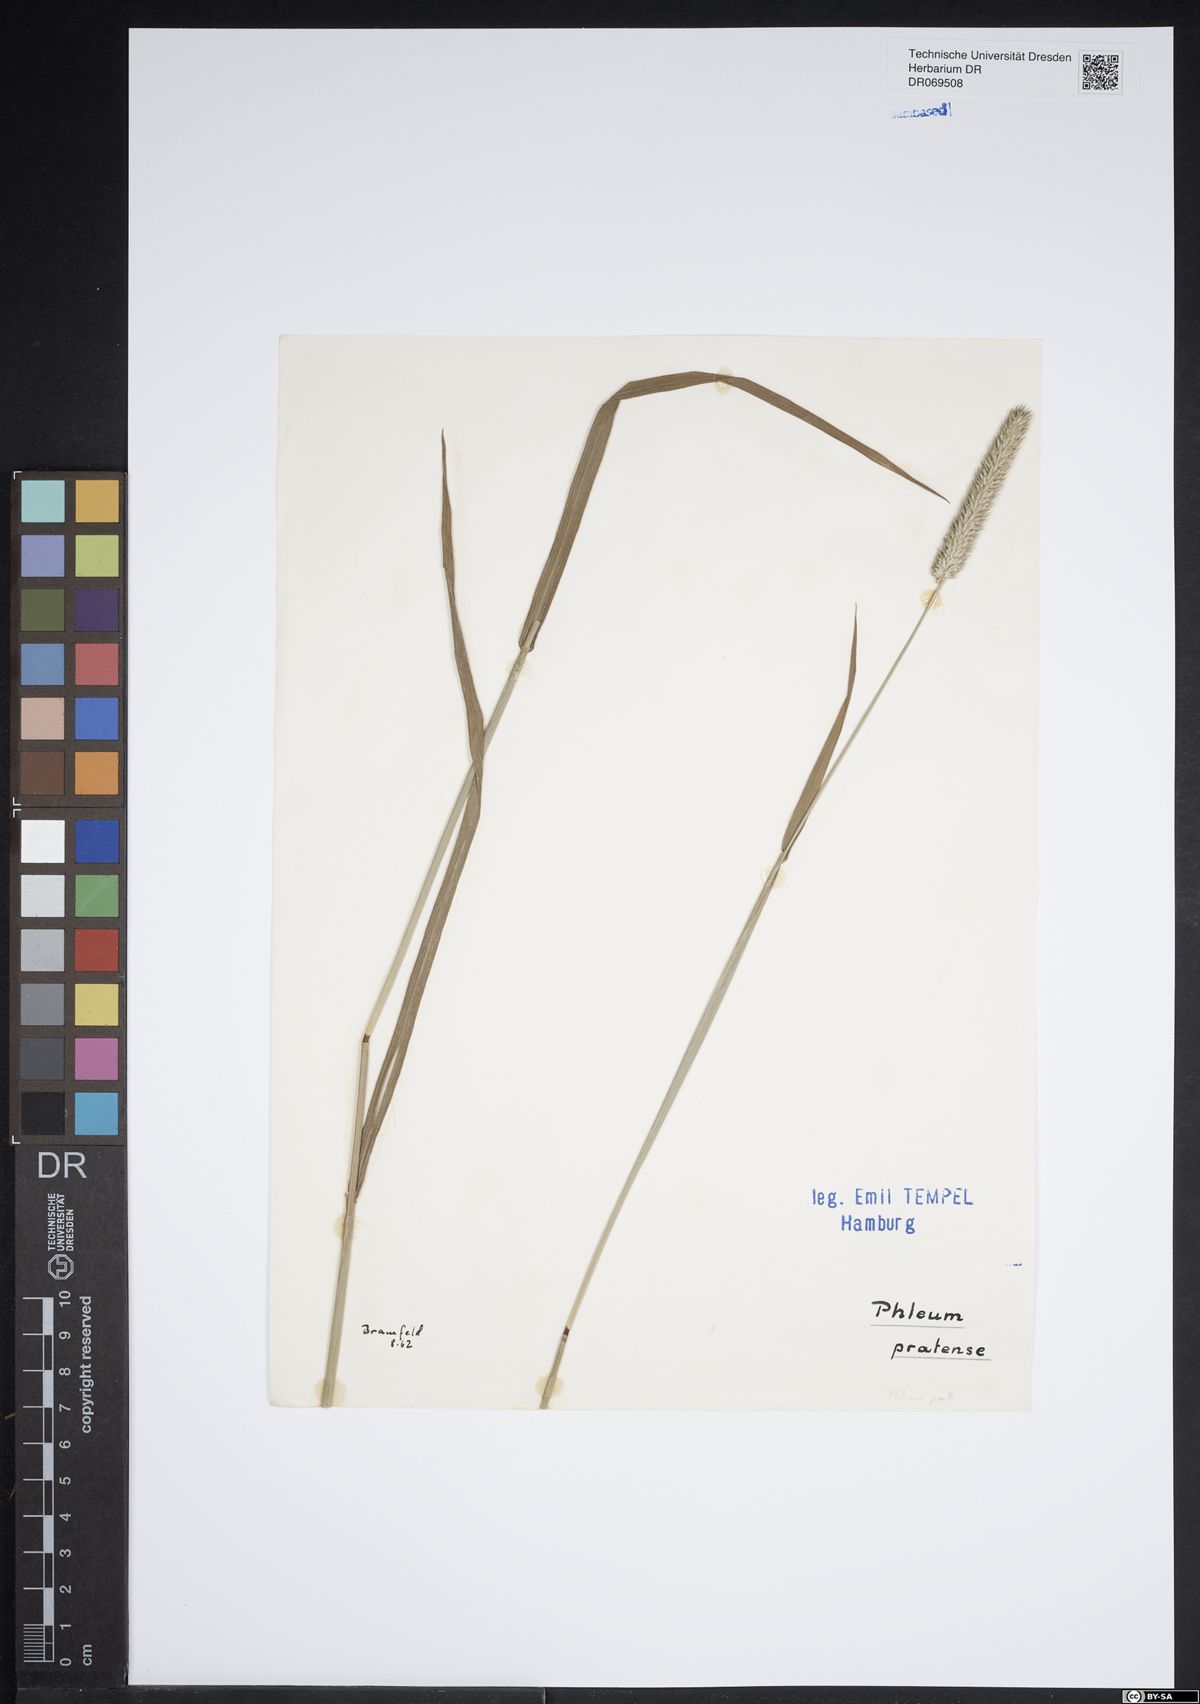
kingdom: Plantae
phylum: Tracheophyta
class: Liliopsida
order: Poales
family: Poaceae
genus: Phleum
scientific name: Phleum pratense
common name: Timothy grass
